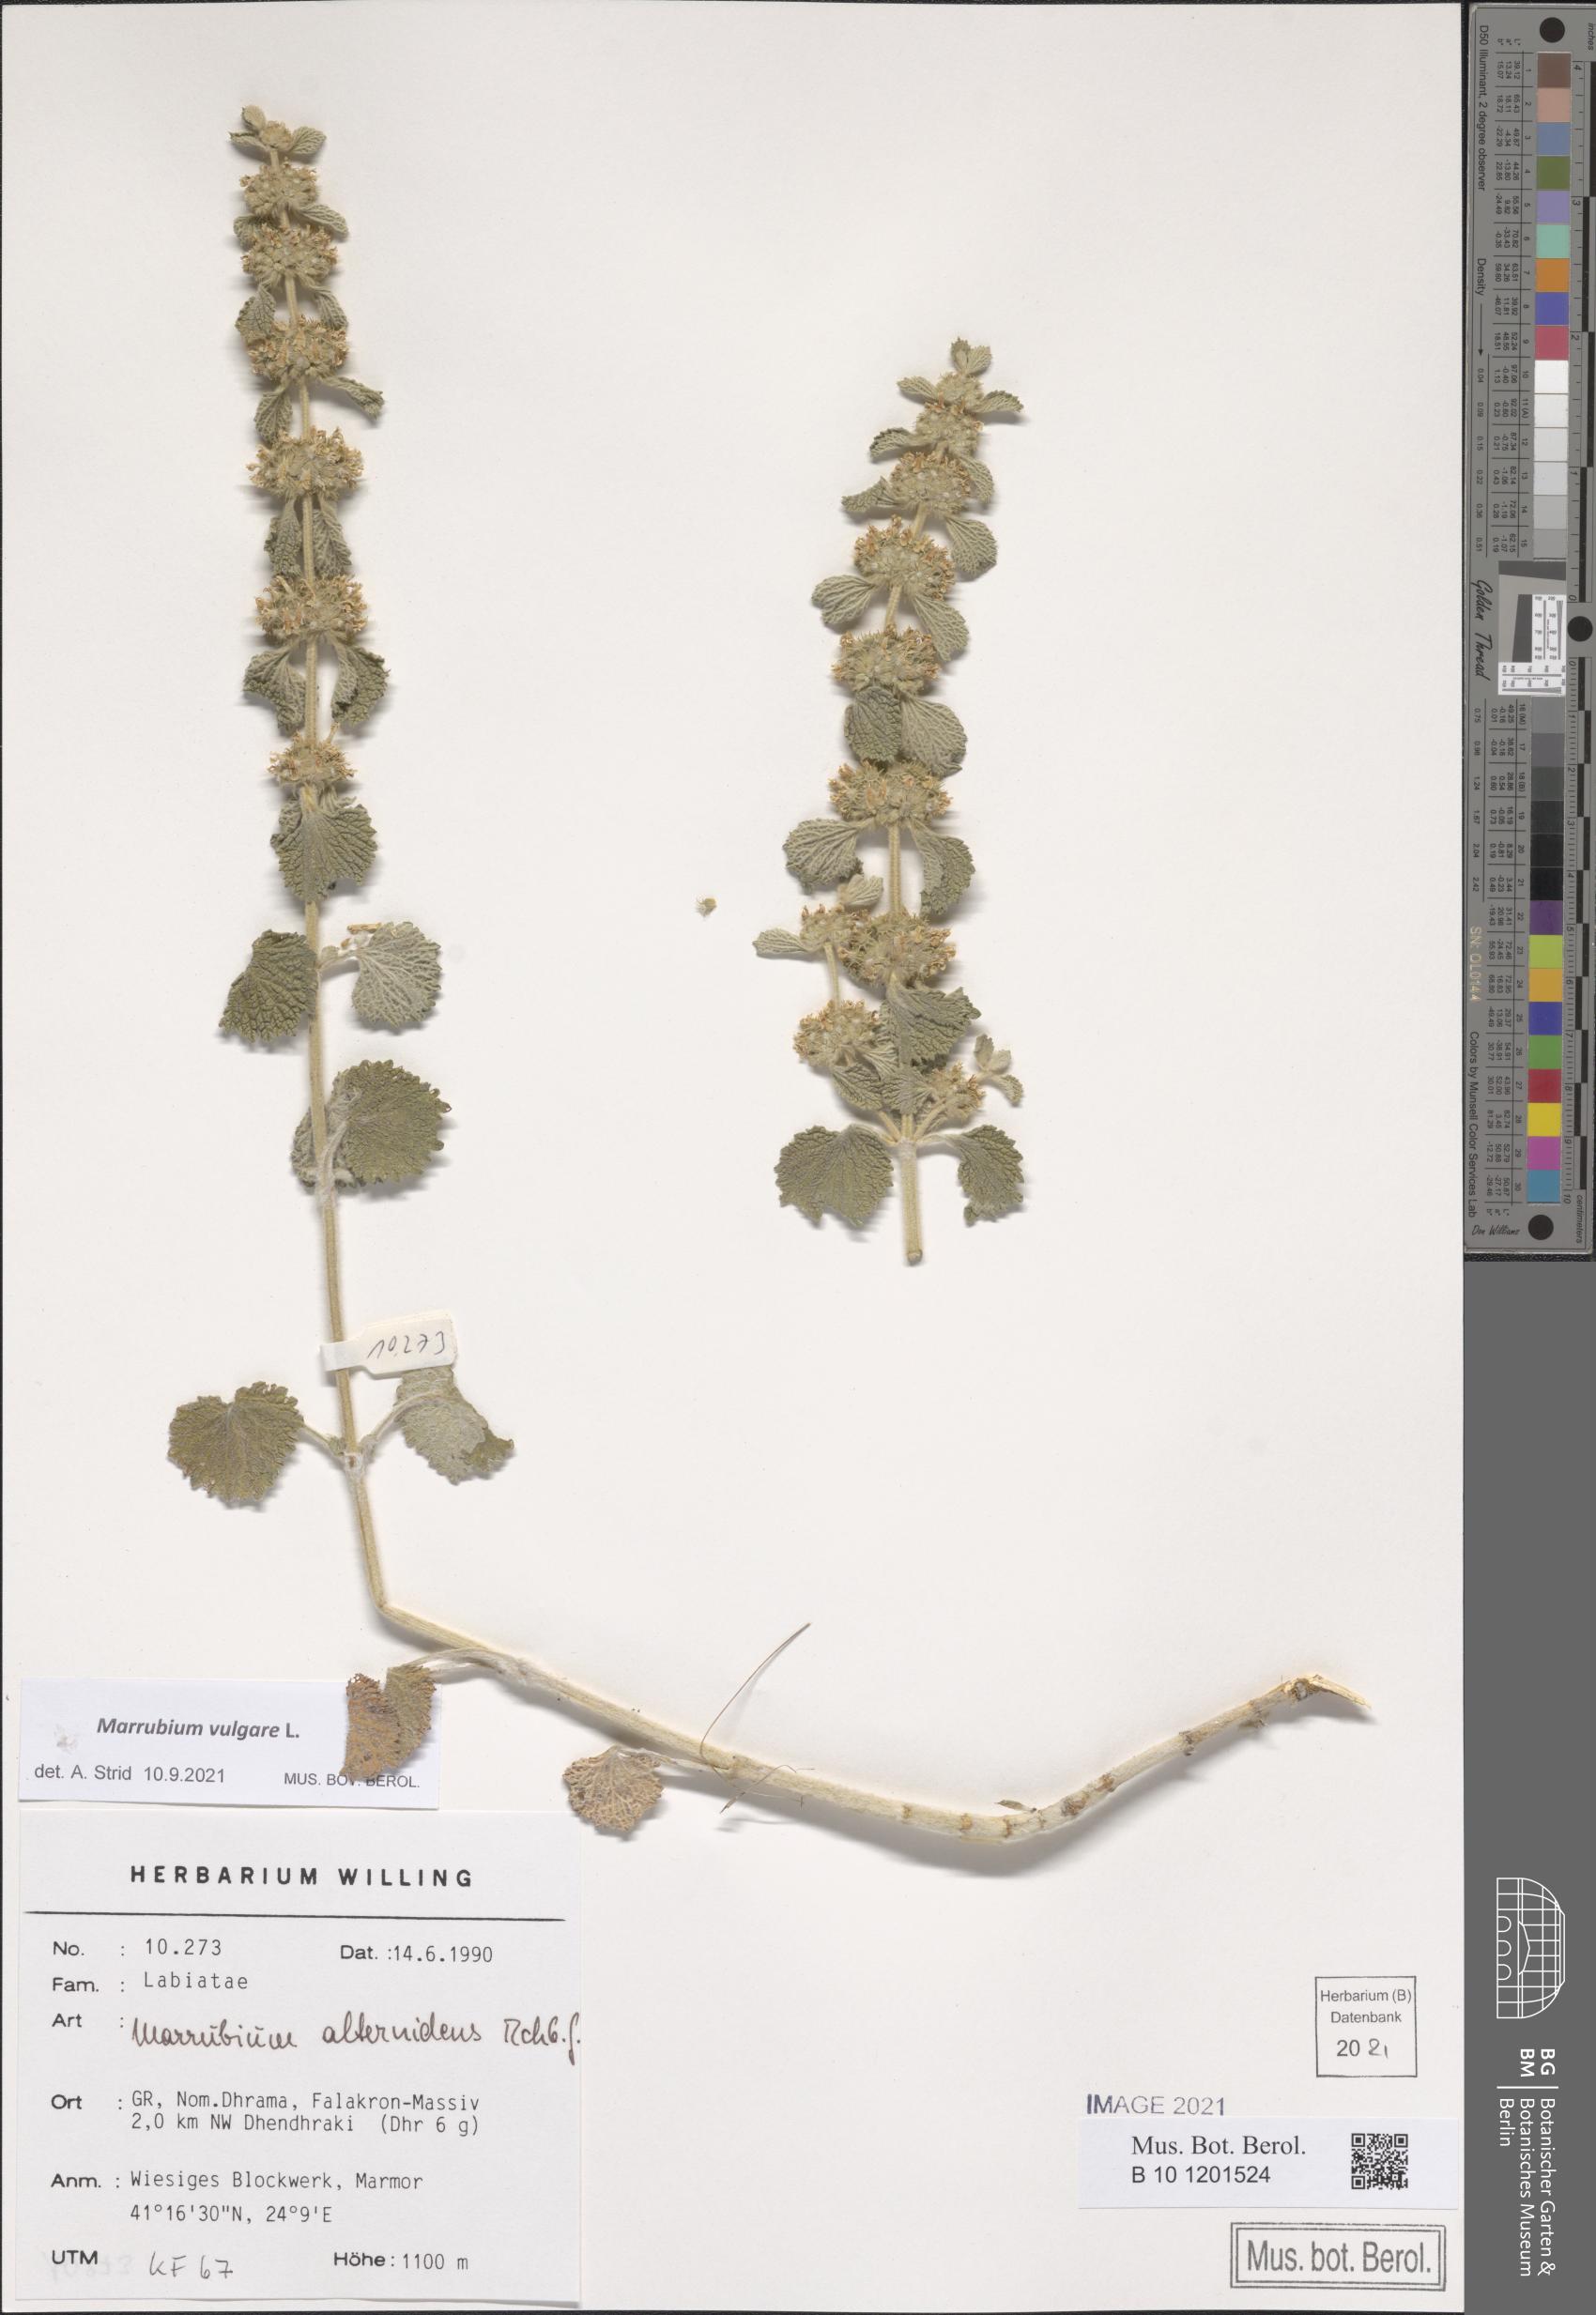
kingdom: Plantae
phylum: Tracheophyta
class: Magnoliopsida
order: Lamiales
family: Lamiaceae
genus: Marrubium
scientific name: Marrubium vulgare
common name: Horehound
